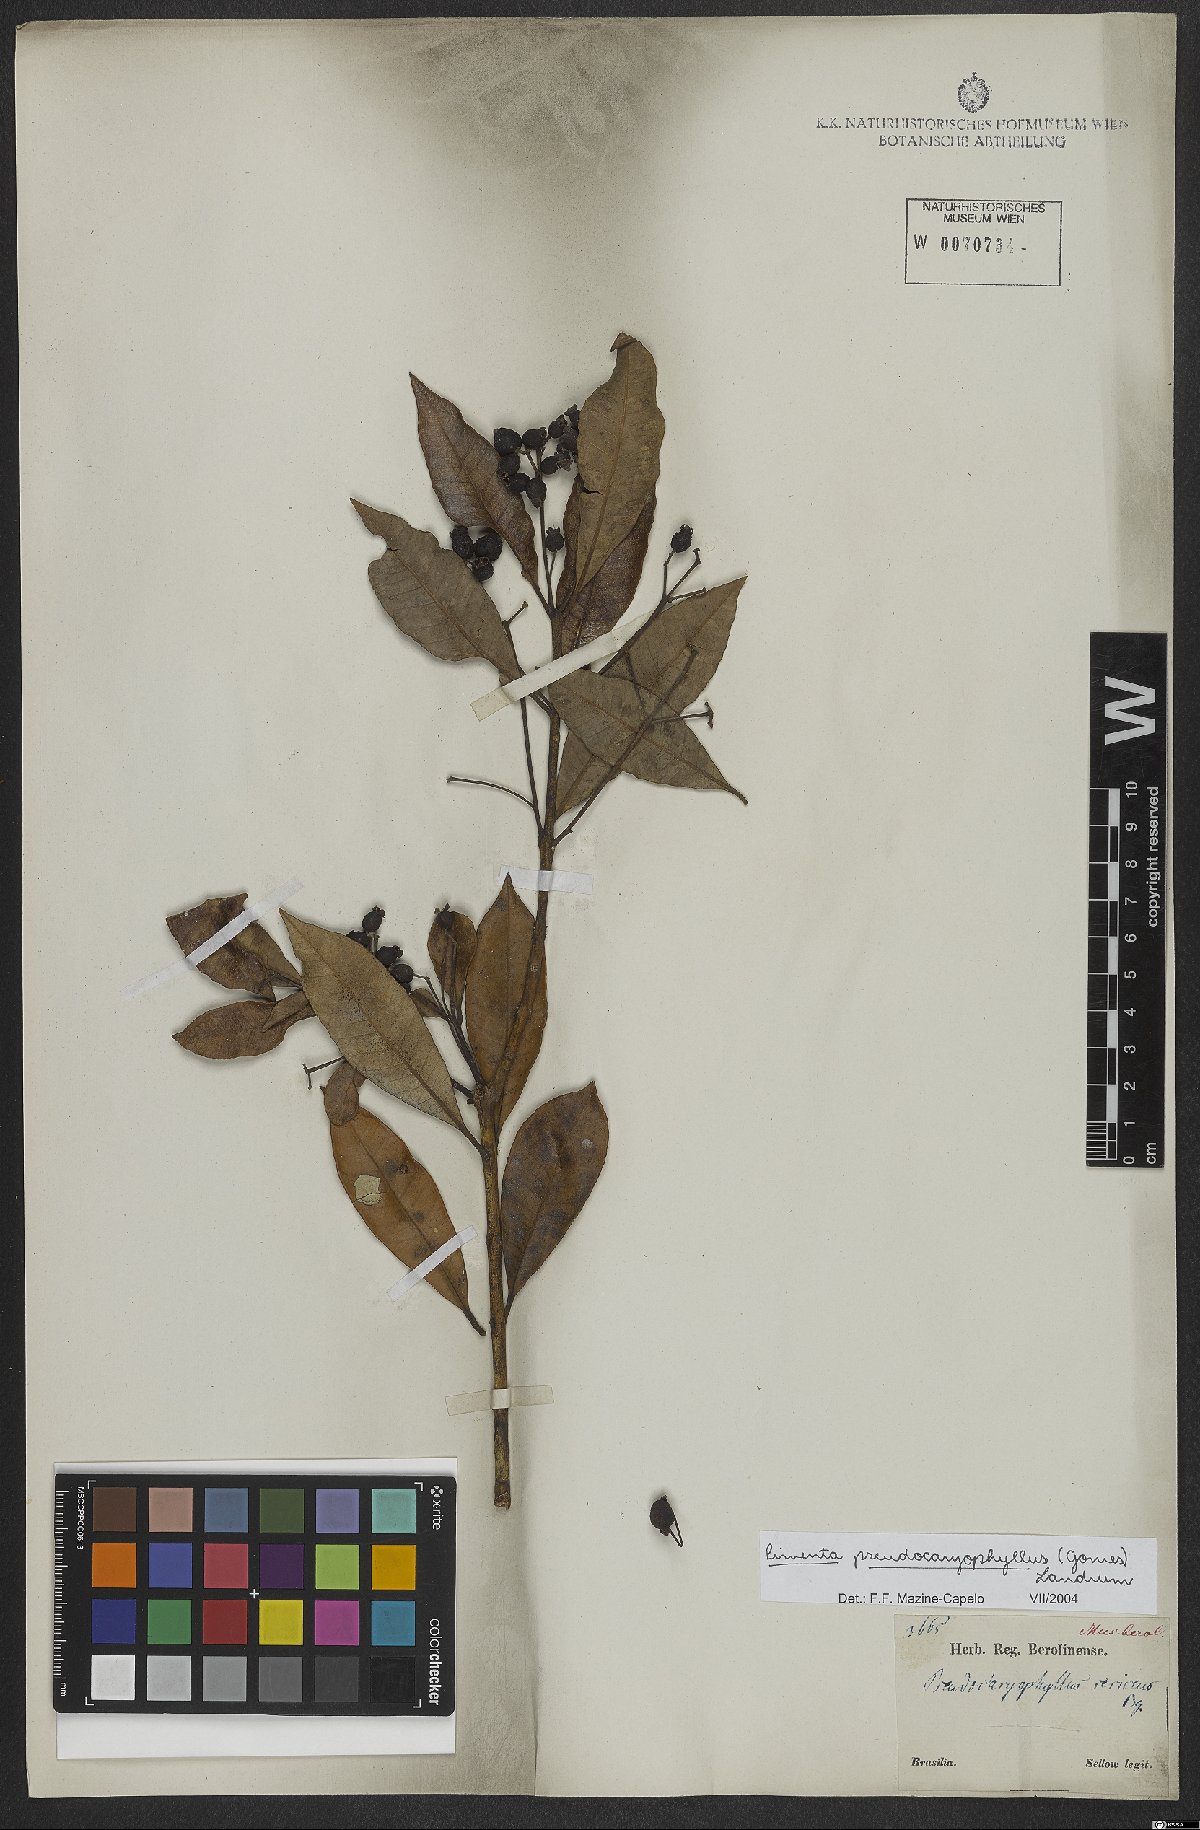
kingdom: Plantae
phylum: Tracheophyta
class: Magnoliopsida
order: Myrtales
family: Myrtaceae
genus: Pimenta
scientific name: Pimenta pseudocaryophyllus
